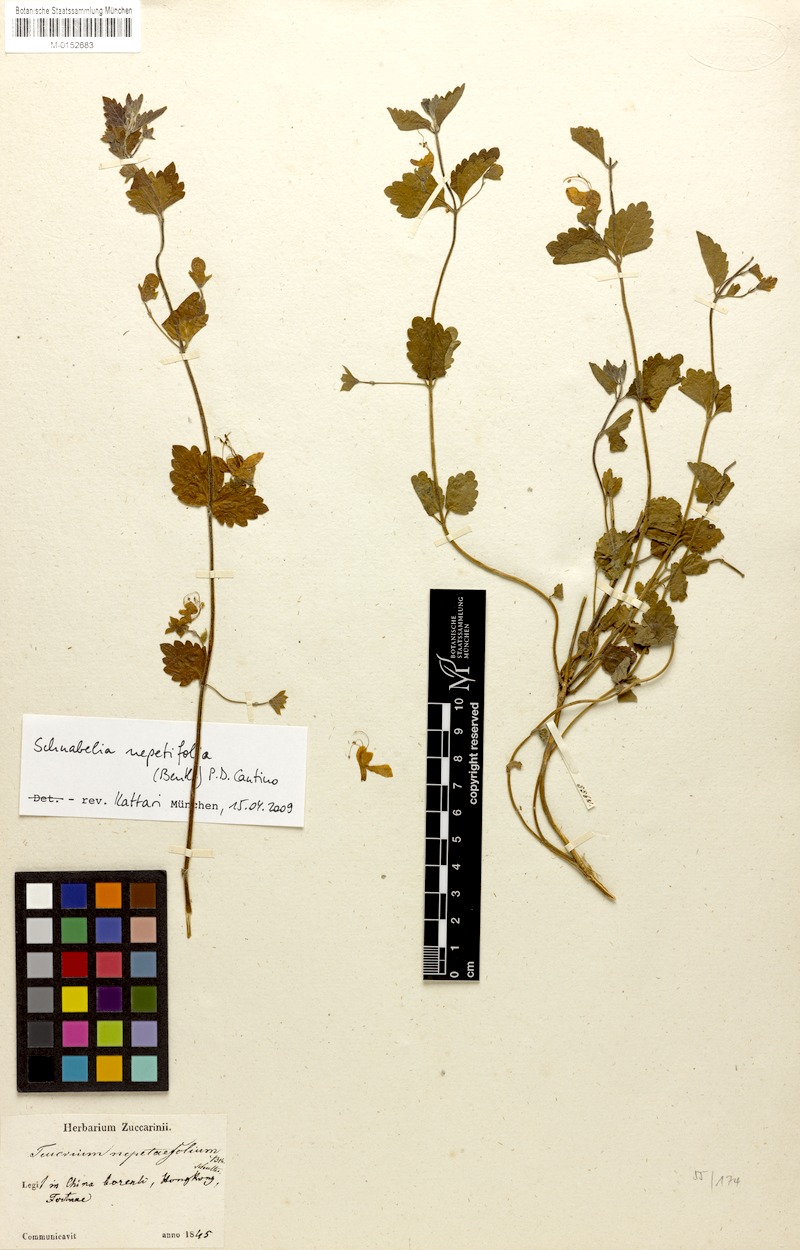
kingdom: Plantae
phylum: Tracheophyta
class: Magnoliopsida
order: Lamiales
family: Lamiaceae
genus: Schnabelia
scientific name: Schnabelia nepetifolia
